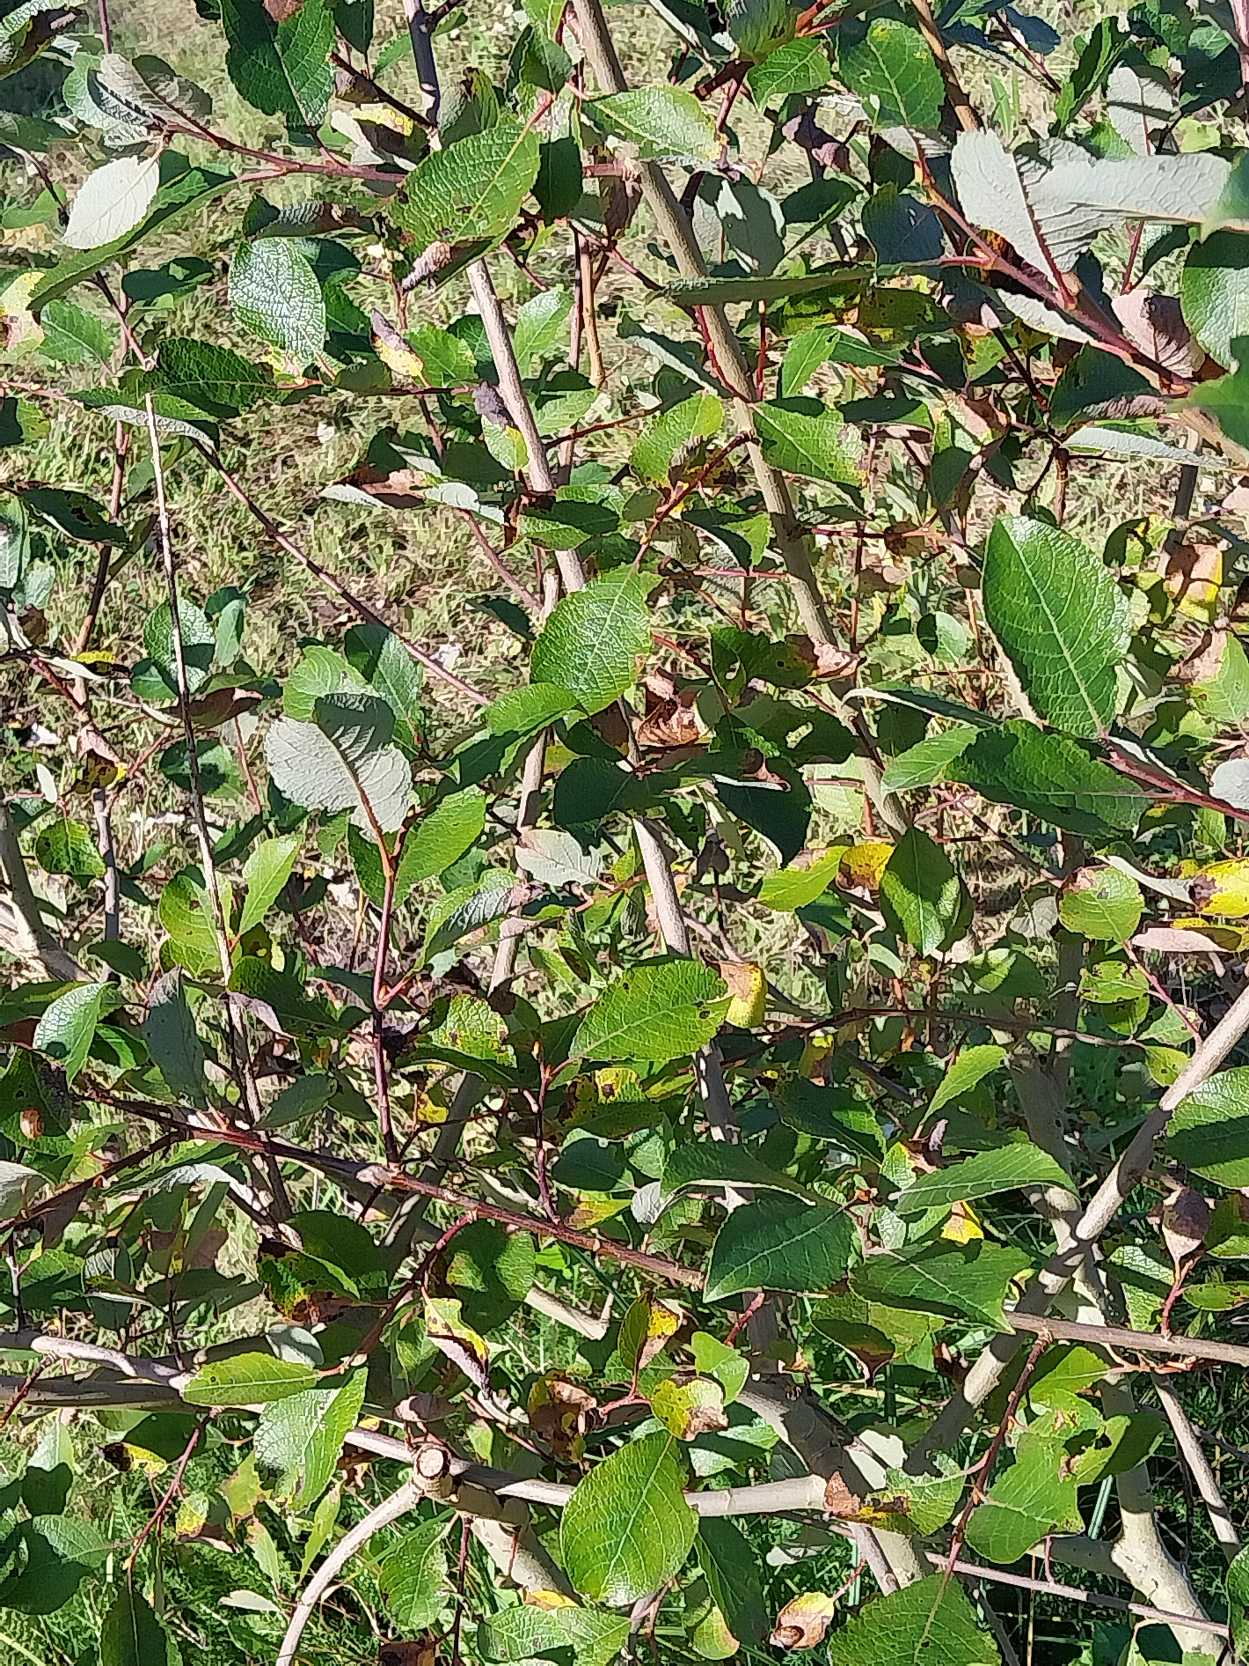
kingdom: Plantae
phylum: Tracheophyta
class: Magnoliopsida
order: Malpighiales
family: Salicaceae
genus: Salix
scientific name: Salix caprea
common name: Selje-pil
